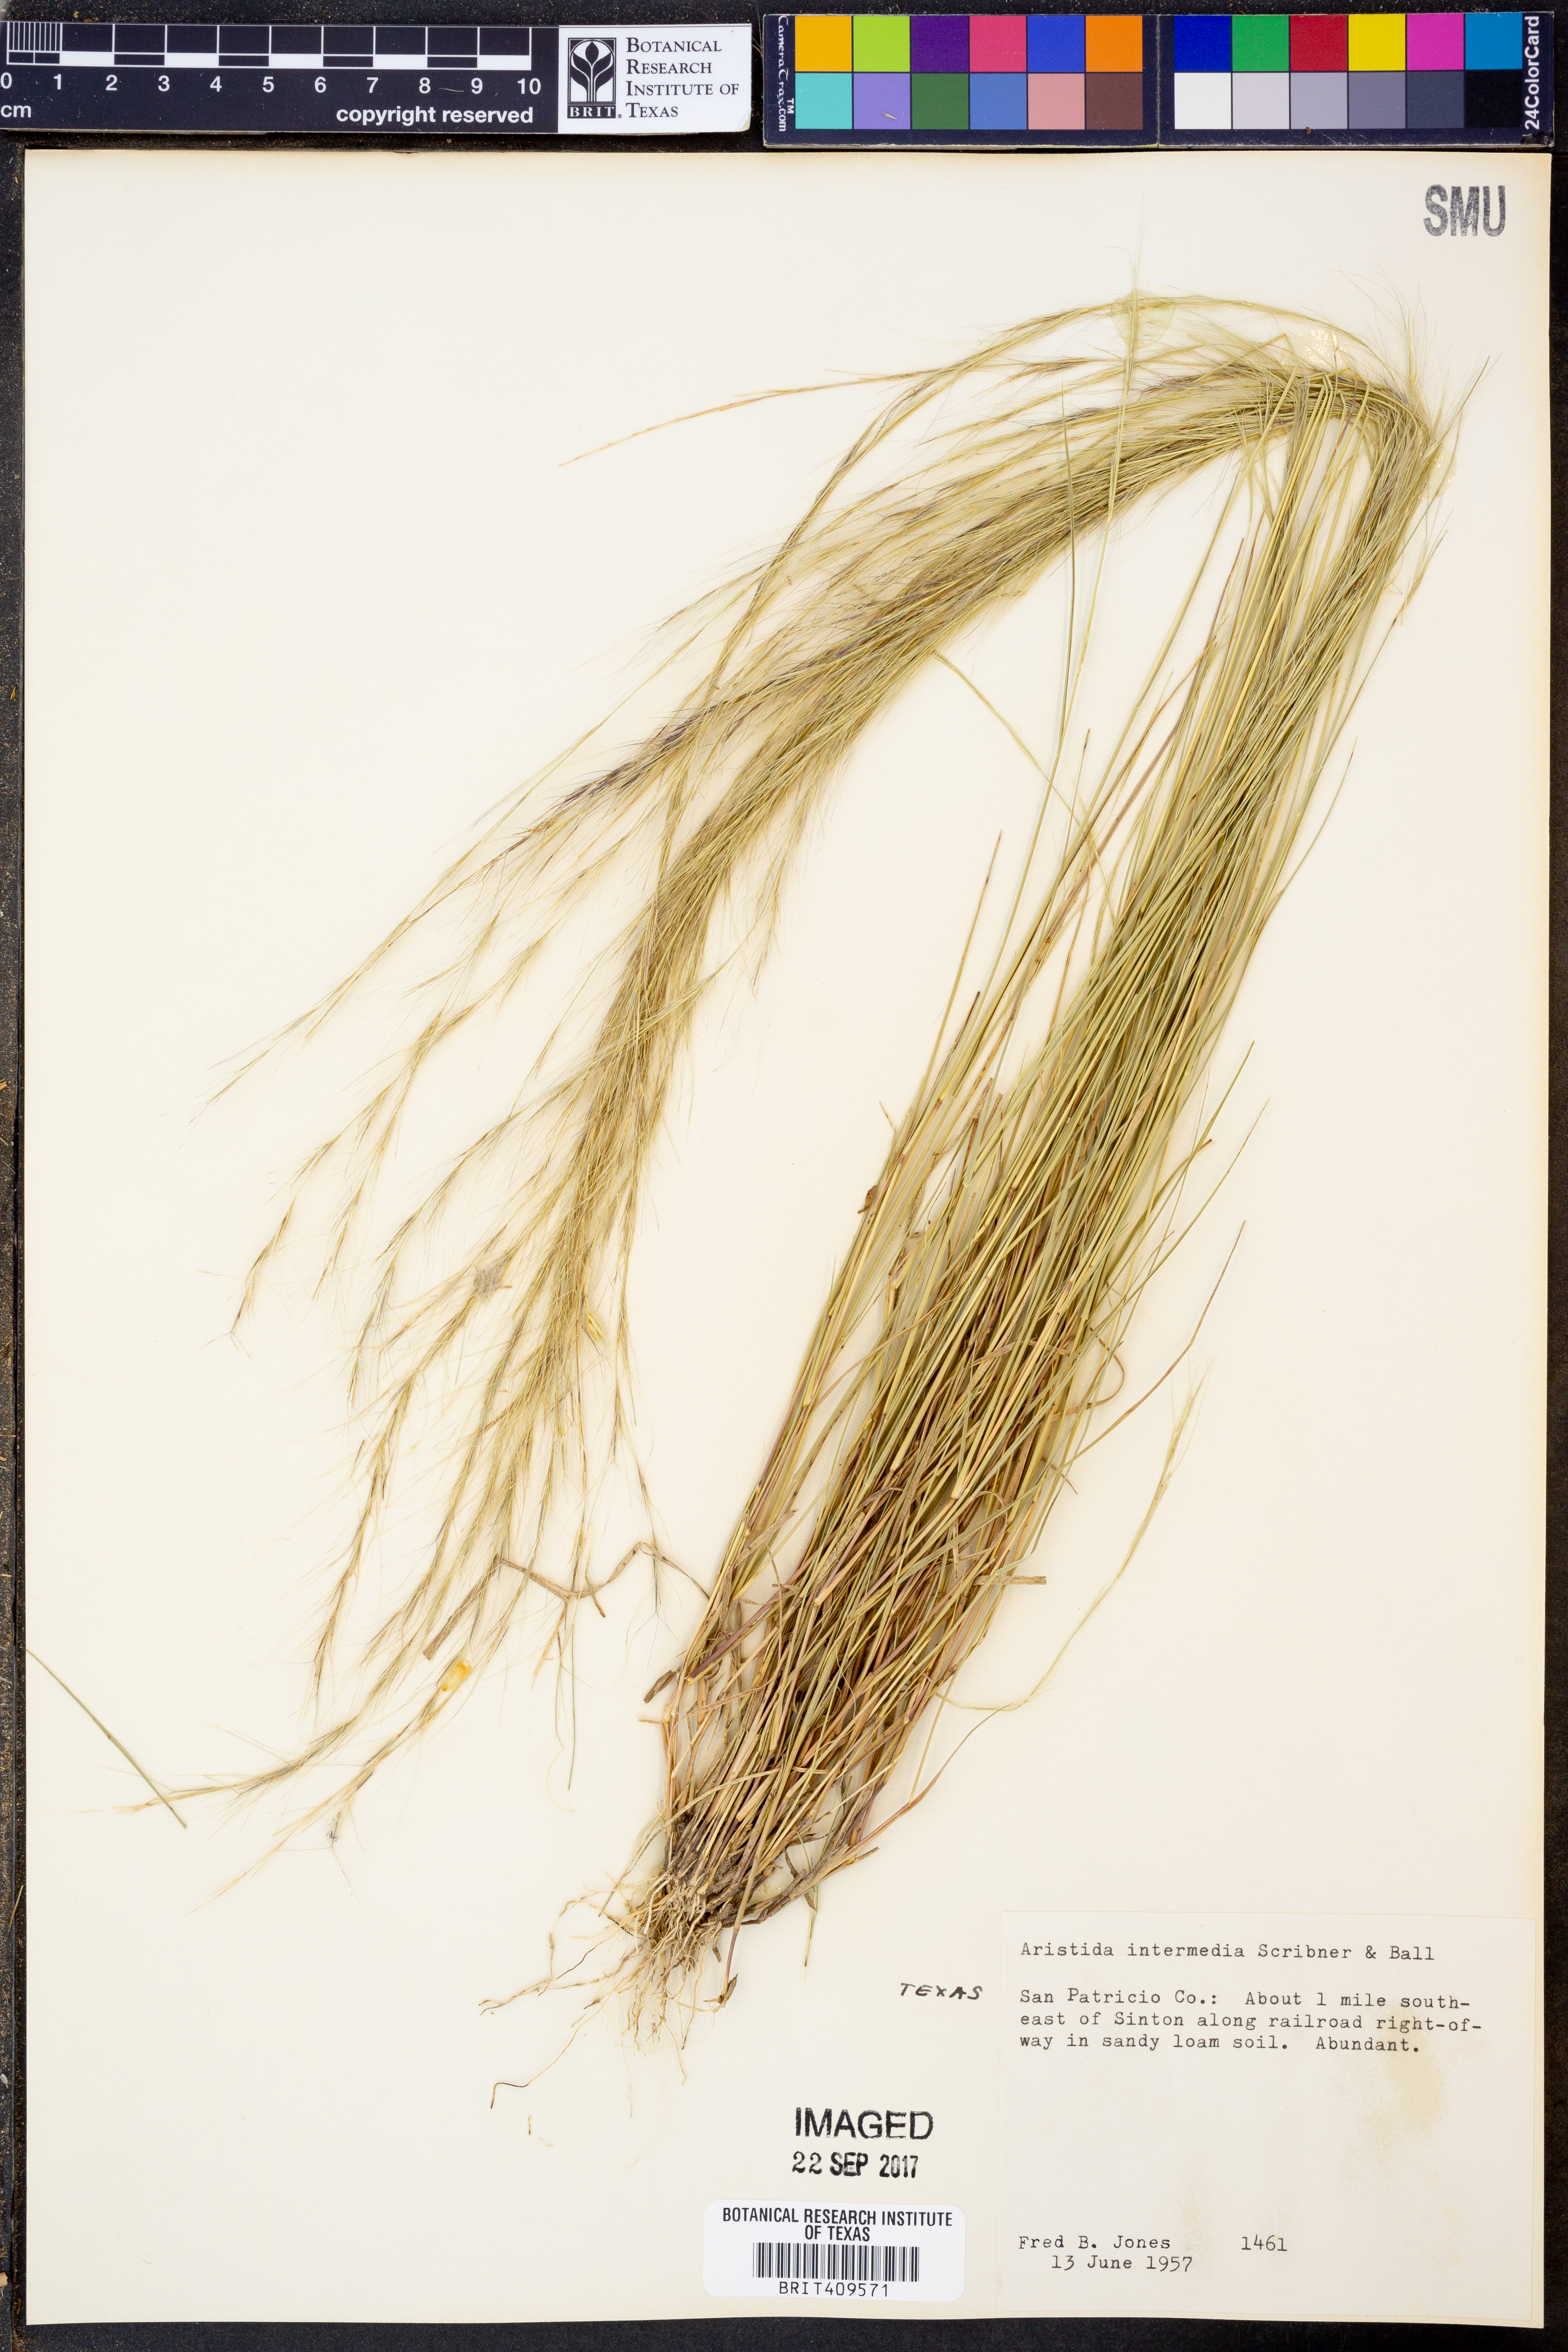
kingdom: Plantae
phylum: Tracheophyta
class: Liliopsida
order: Poales
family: Poaceae
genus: Aristida
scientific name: Aristida longespica
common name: Long-spiked triple-awned grass
